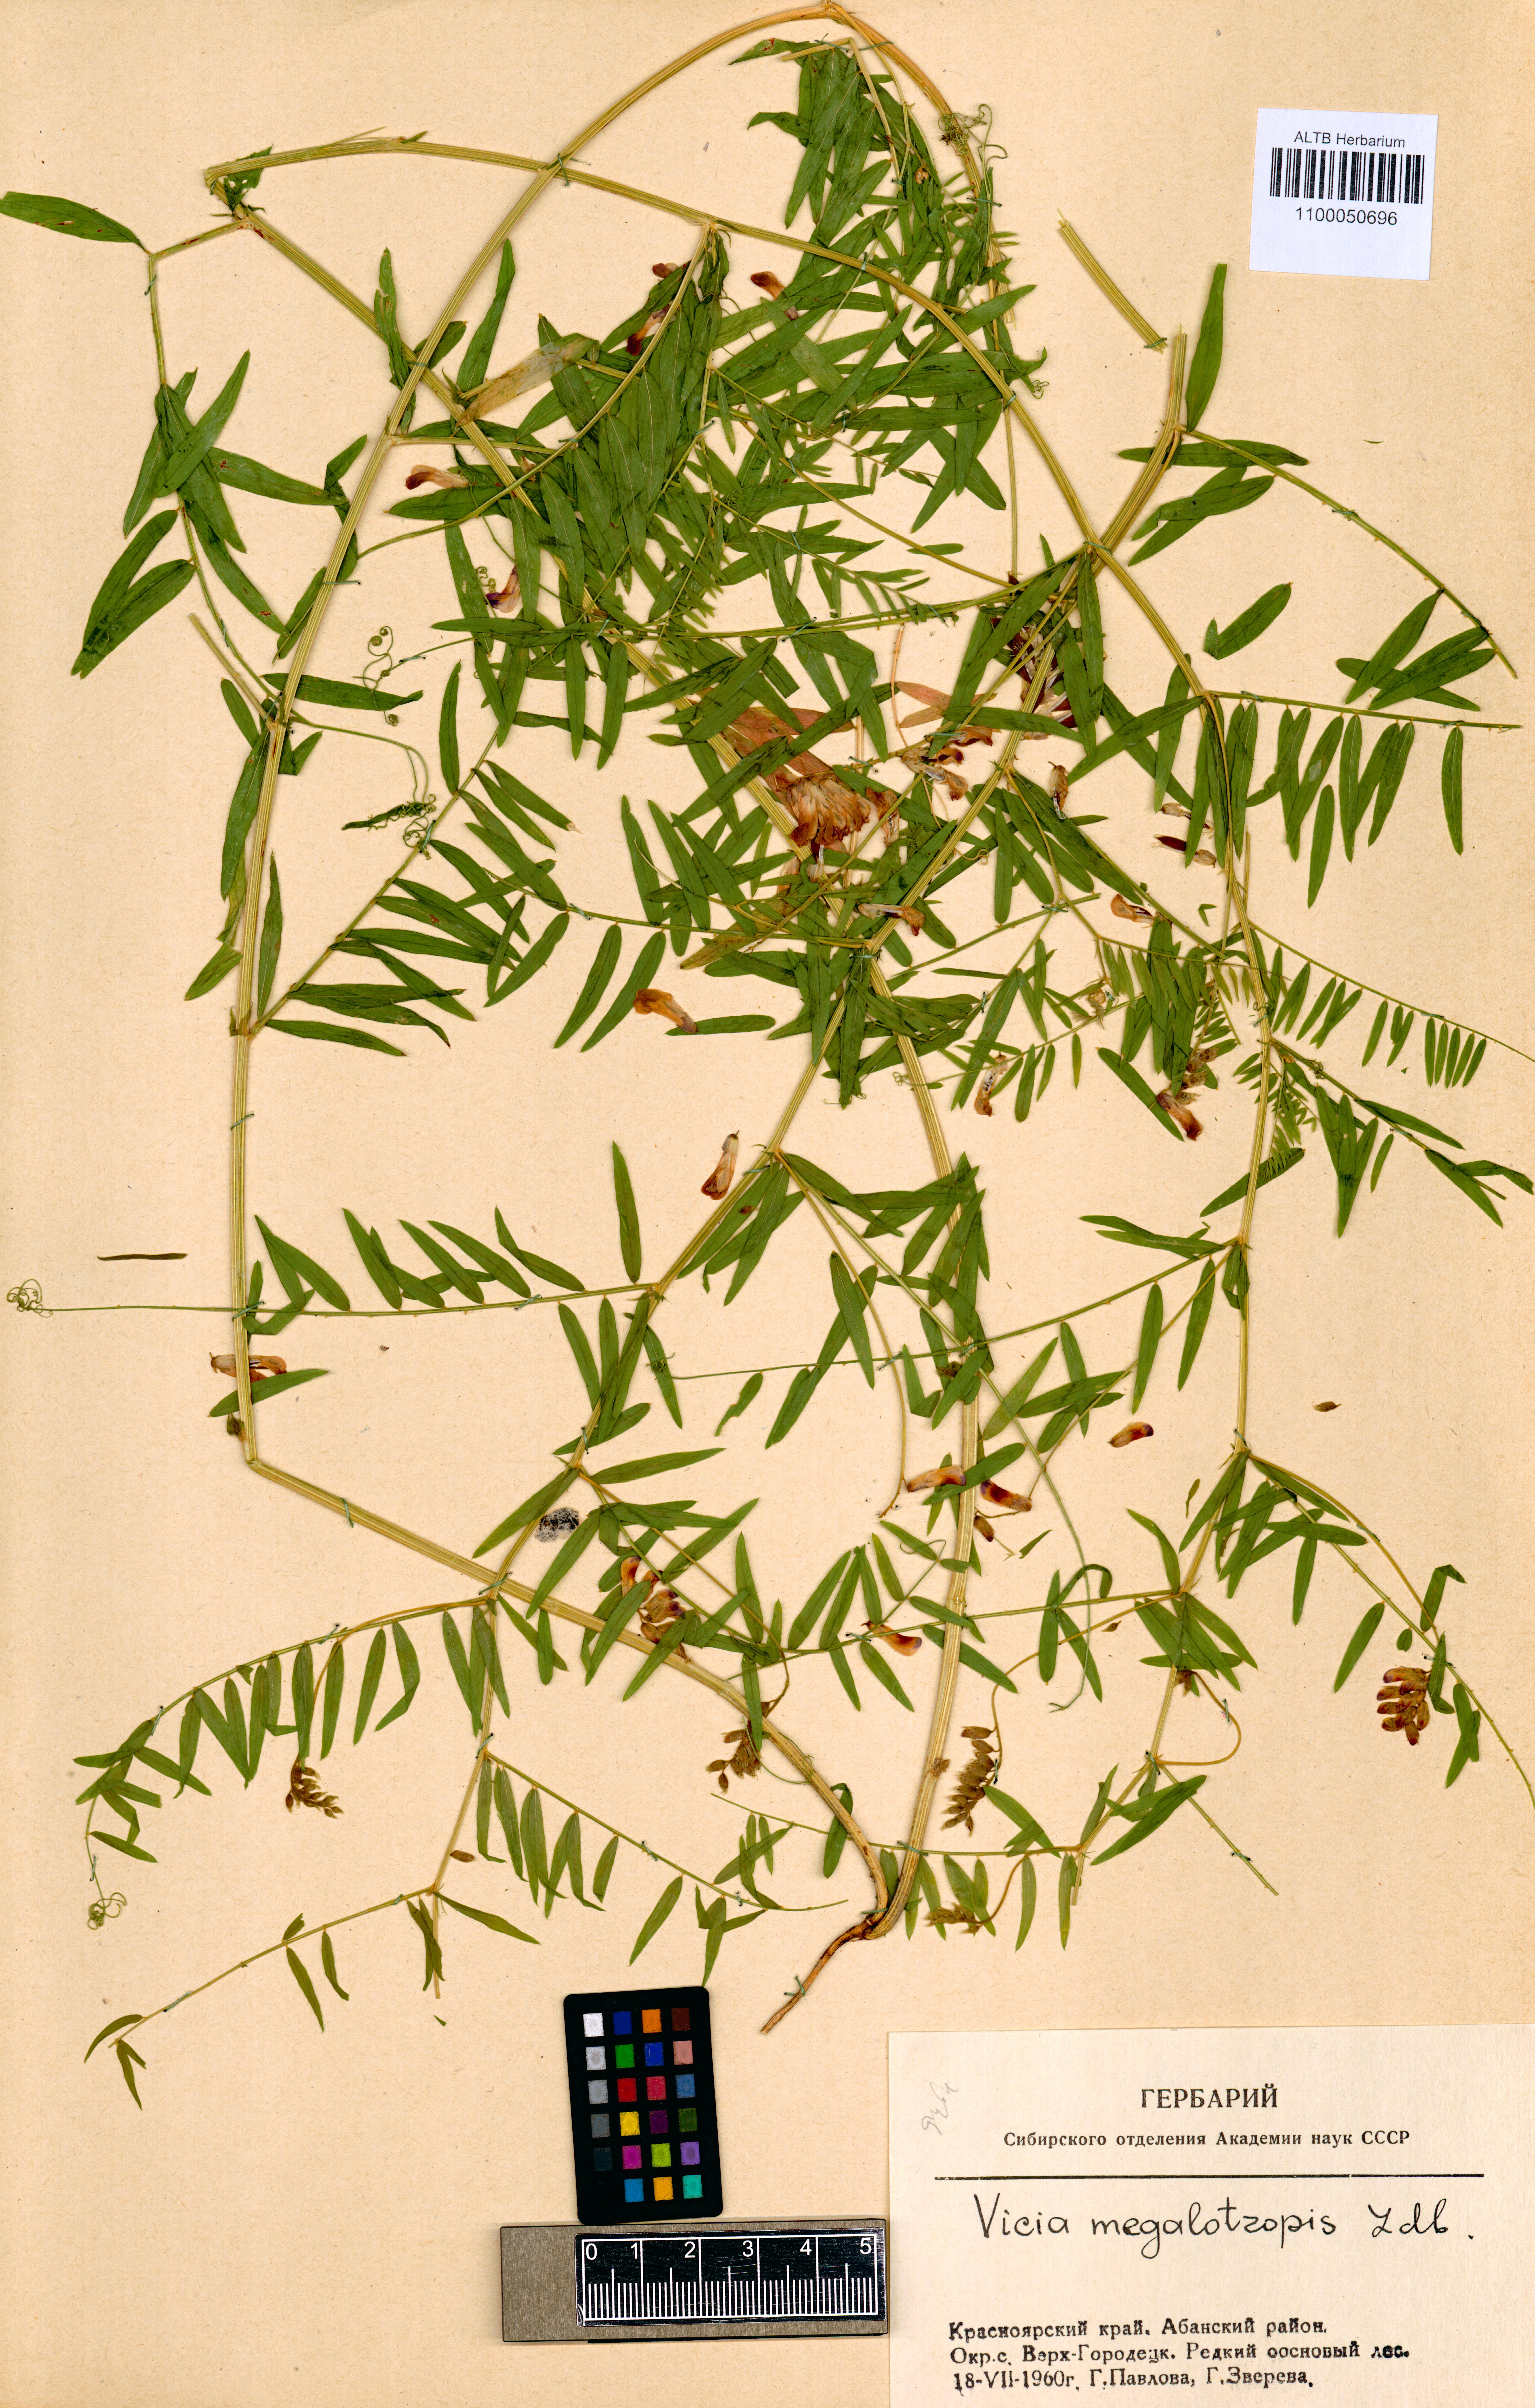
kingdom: Plantae
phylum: Tracheophyta
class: Magnoliopsida
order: Fabales
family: Fabaceae
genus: Vicia
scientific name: Vicia megalotropis
